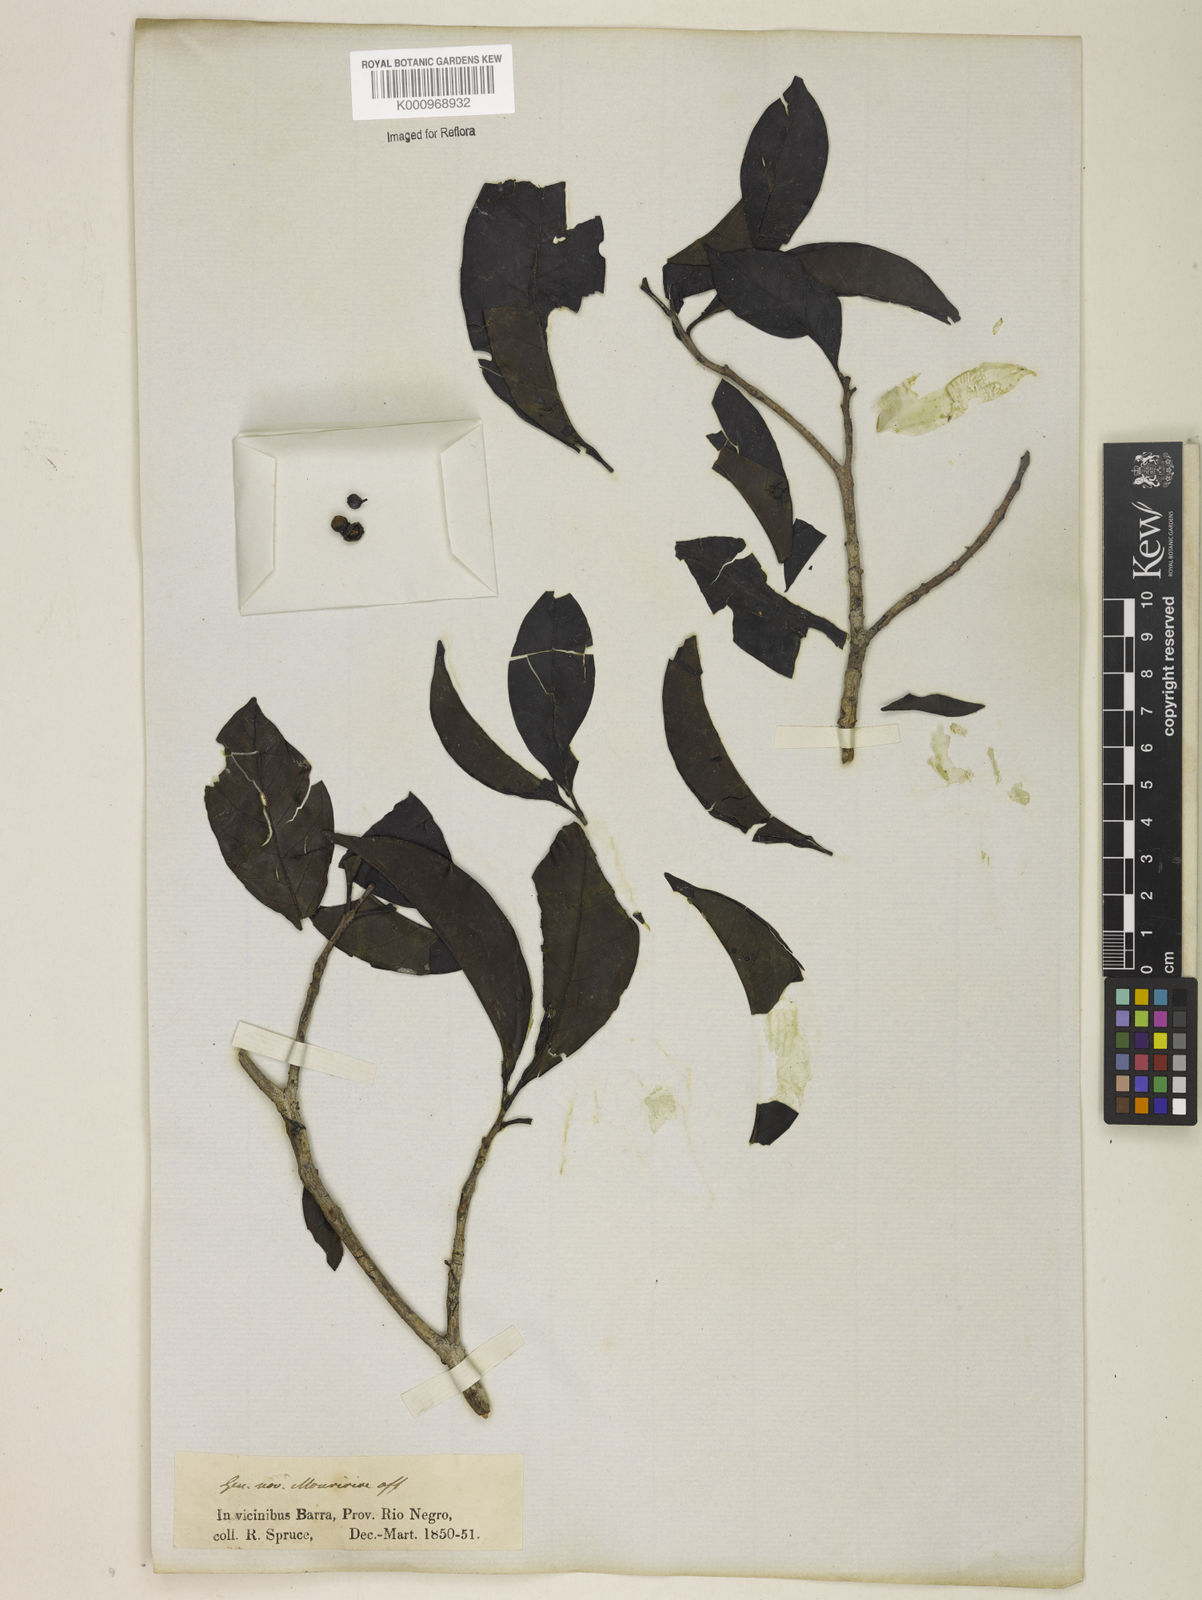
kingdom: Plantae
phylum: Tracheophyta
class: Magnoliopsida
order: Myrtales
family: Melastomataceae
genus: Mouriri
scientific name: Mouriri
